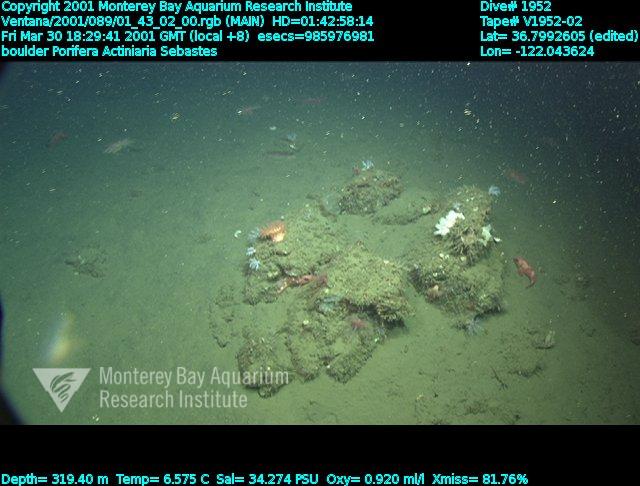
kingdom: Animalia
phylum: Porifera
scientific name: Porifera
